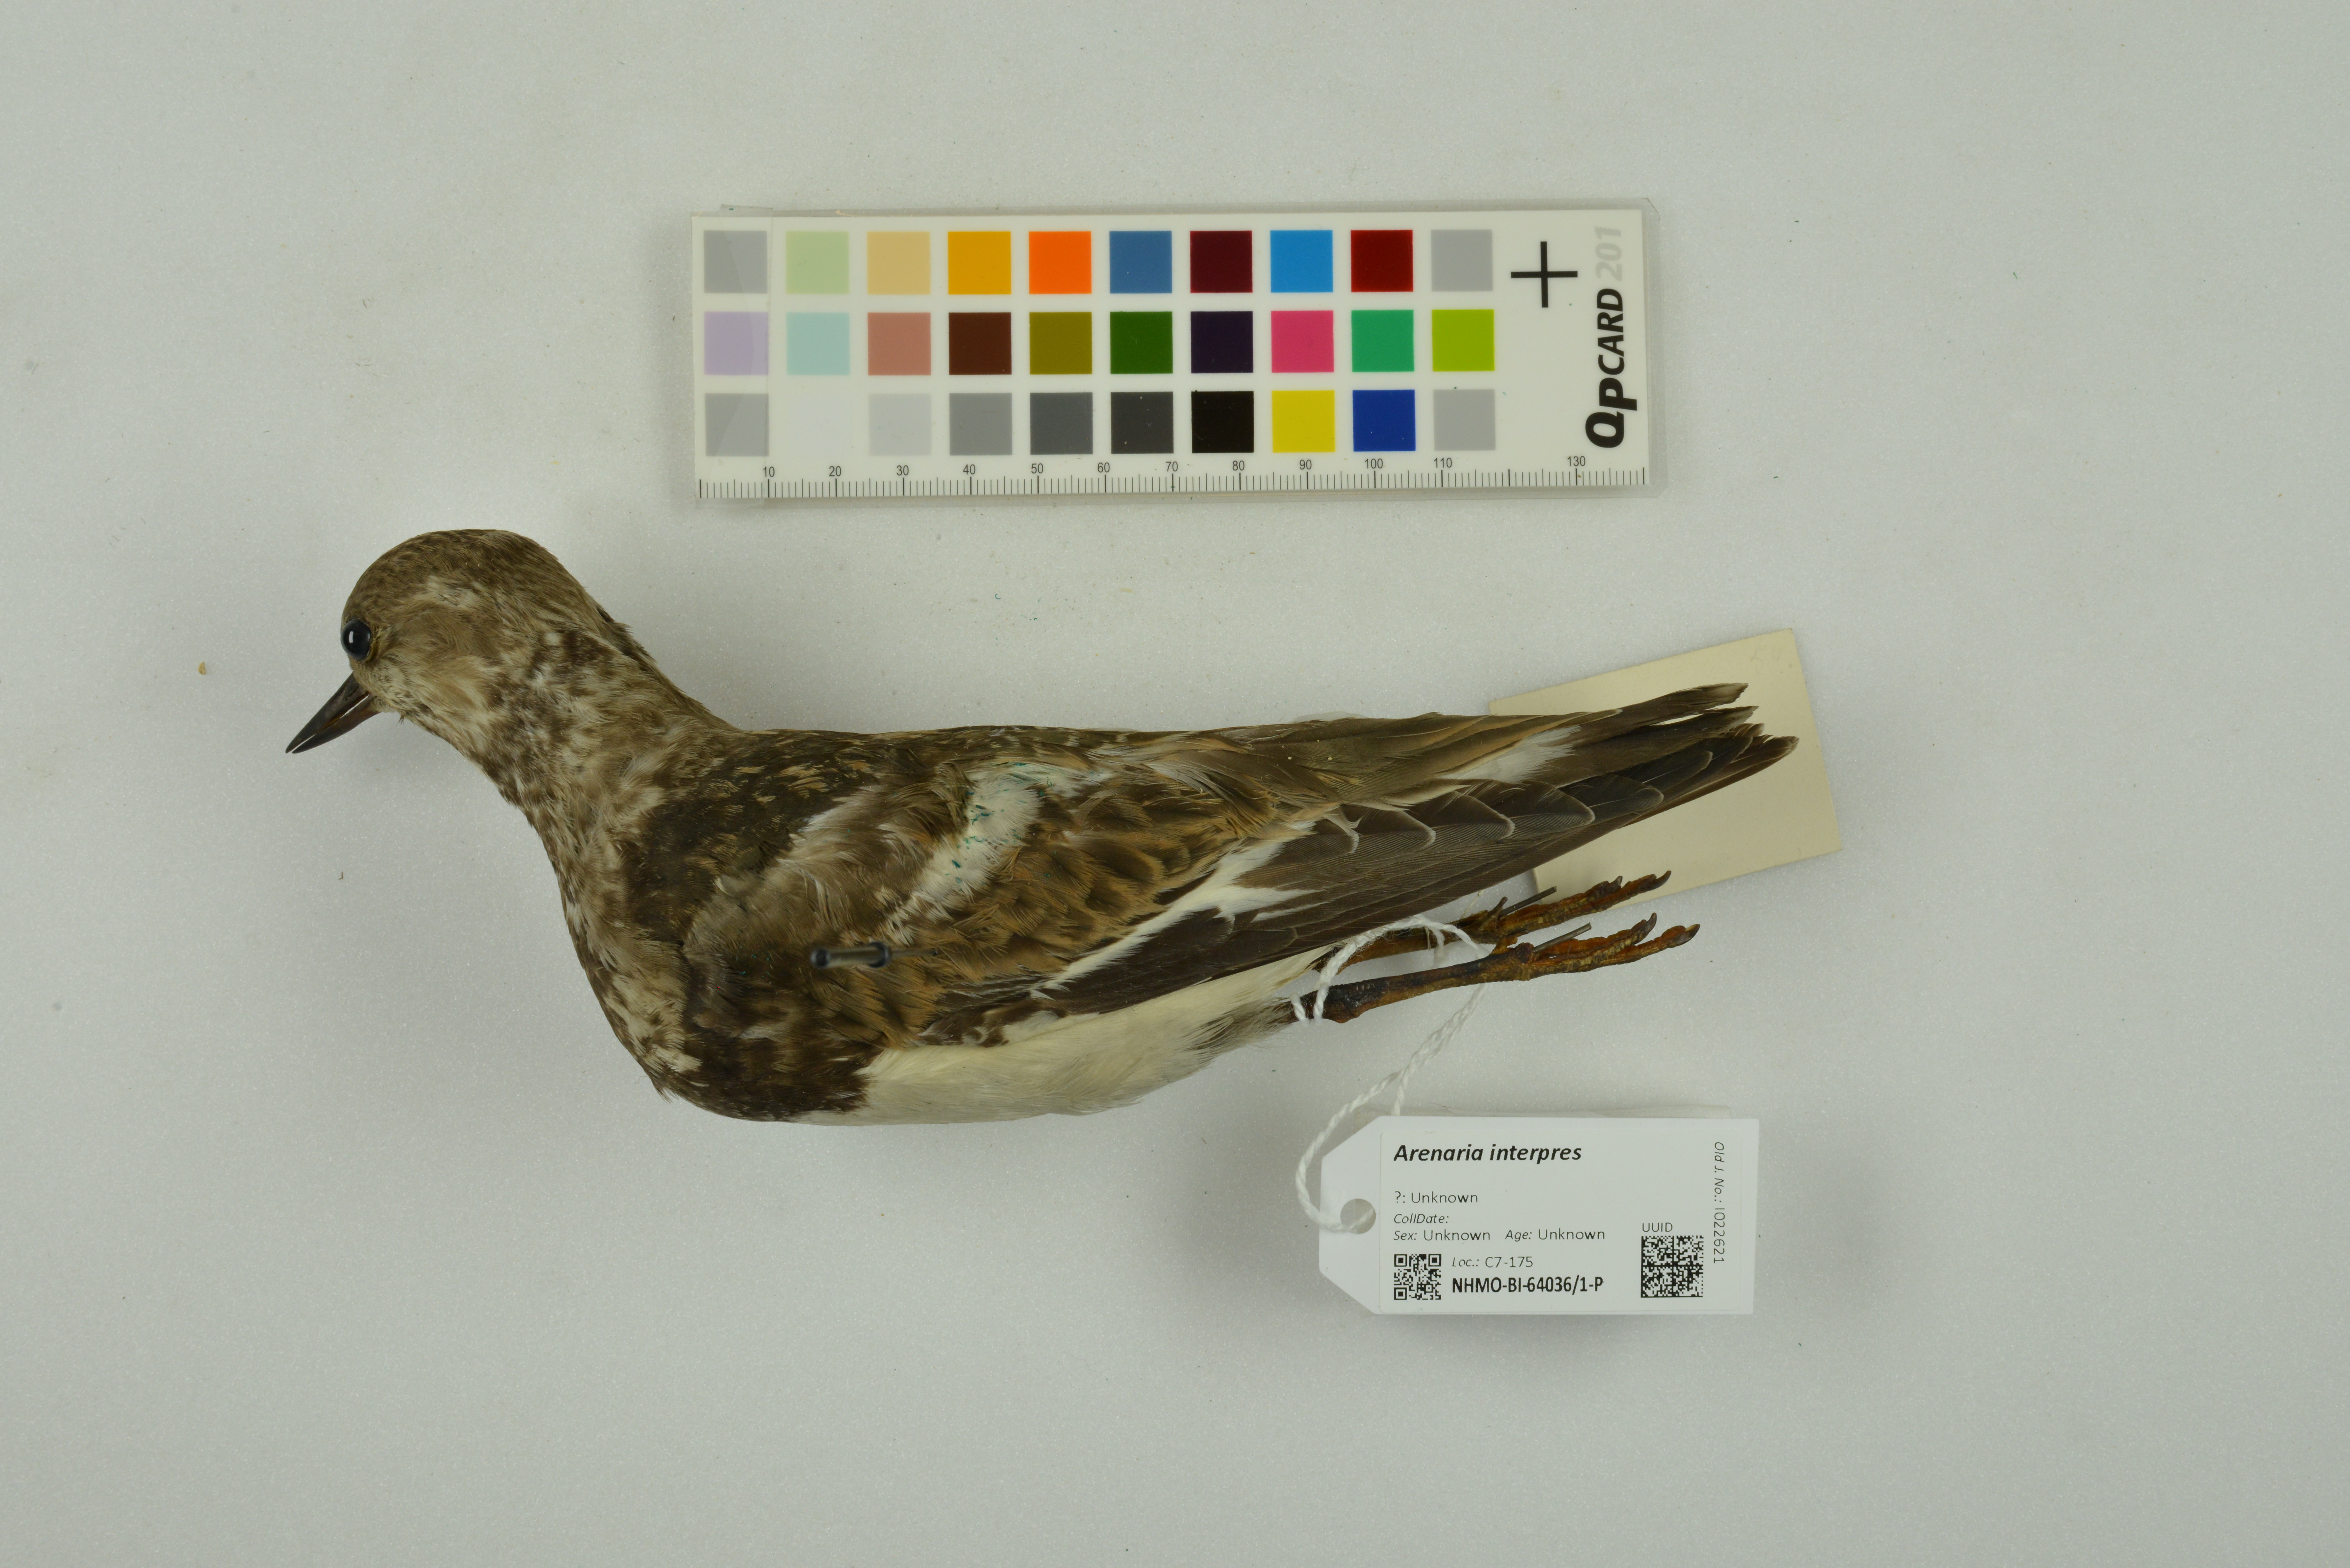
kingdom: Animalia
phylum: Chordata
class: Aves
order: Charadriiformes
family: Scolopacidae
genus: Arenaria
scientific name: Arenaria interpres
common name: Ruddy turnstone
